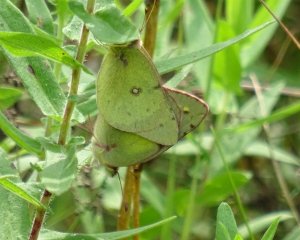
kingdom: Animalia
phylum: Arthropoda
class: Insecta
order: Lepidoptera
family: Pieridae
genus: Colias
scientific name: Colias philodice
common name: Clouded Sulphur
